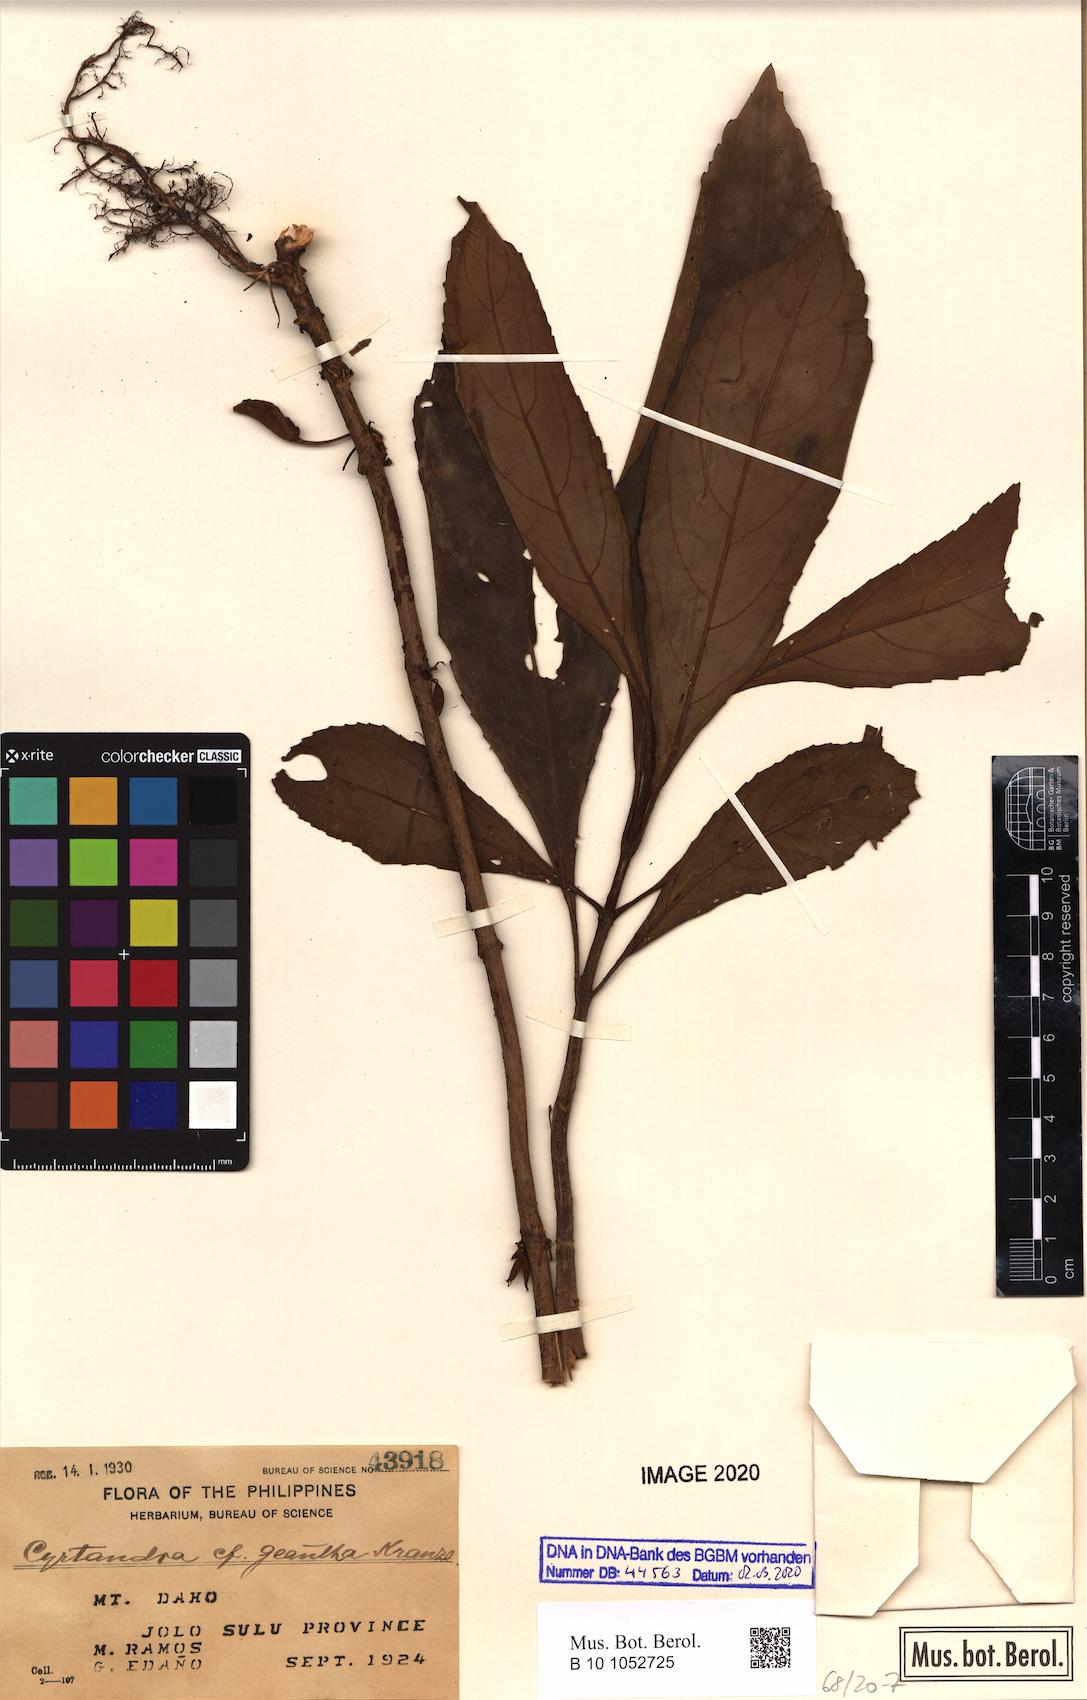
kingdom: Plantae
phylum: Tracheophyta
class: Magnoliopsida
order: Lamiales
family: Gesneriaceae
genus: Cyrtandra
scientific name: Cyrtandra geantha
